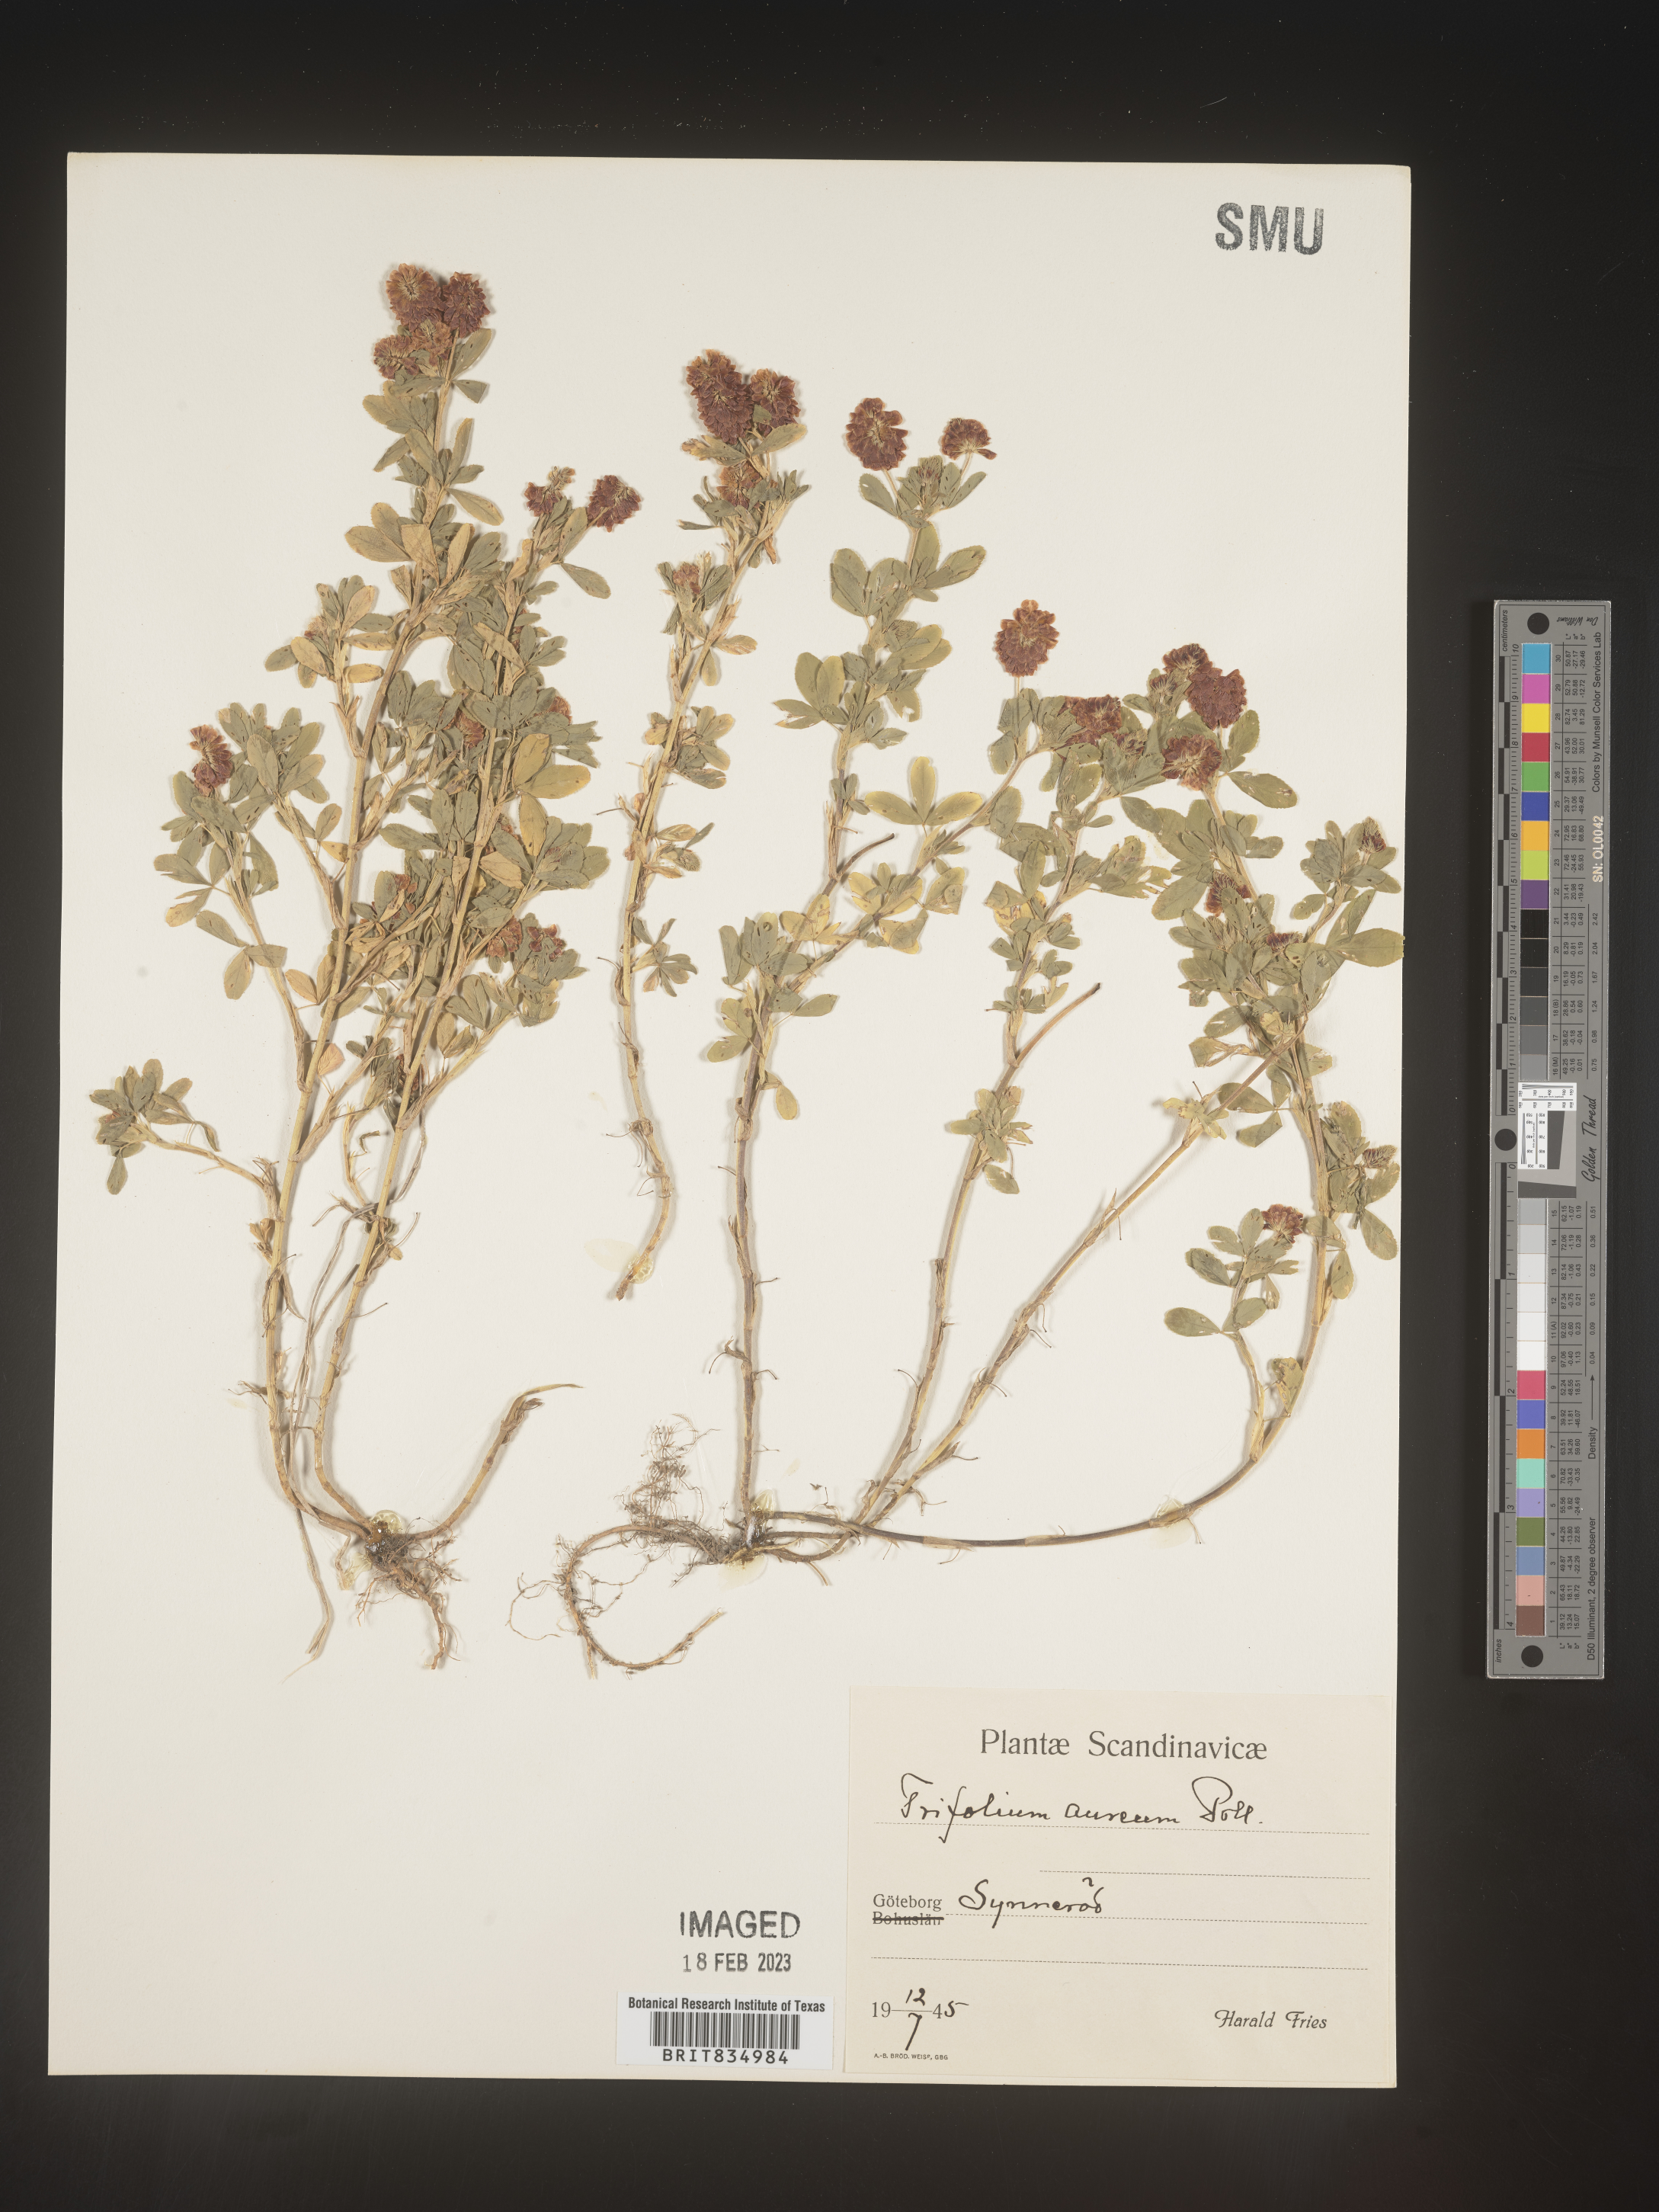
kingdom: Plantae
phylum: Tracheophyta
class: Magnoliopsida
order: Fabales
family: Fabaceae
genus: Trifolium
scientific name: Trifolium
